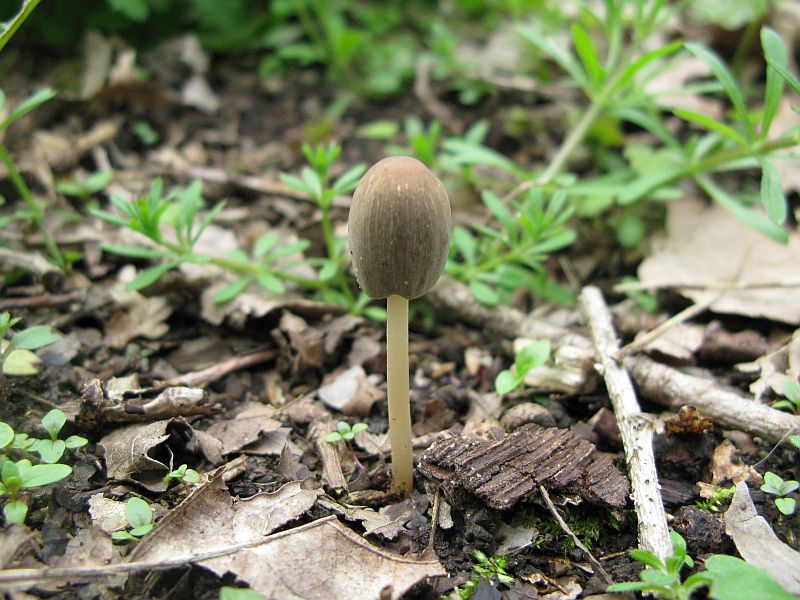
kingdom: Fungi
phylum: Basidiomycota
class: Agaricomycetes
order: Agaricales
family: Psathyrellaceae
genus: Parasola
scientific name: Parasola kuehneri
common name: skygge-hjulhat
